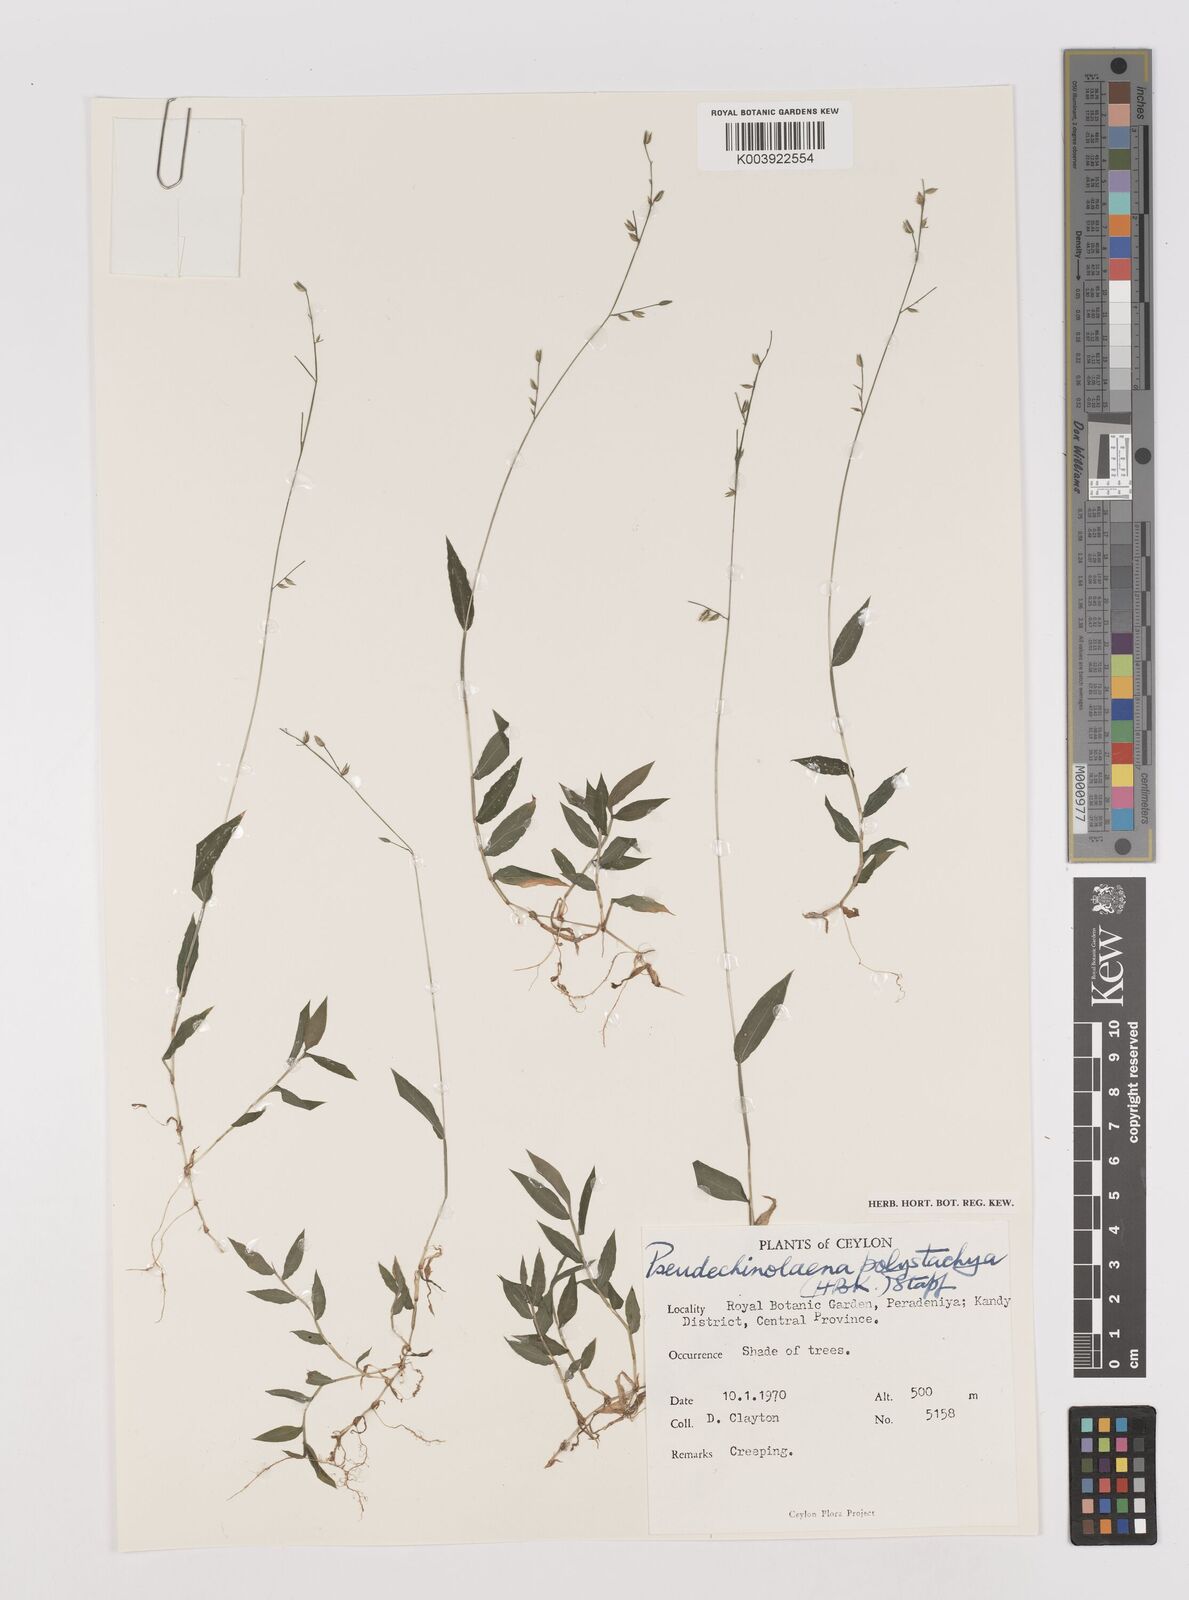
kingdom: Plantae
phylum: Tracheophyta
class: Liliopsida
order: Poales
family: Poaceae
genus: Pseudechinolaena
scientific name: Pseudechinolaena polystachya
